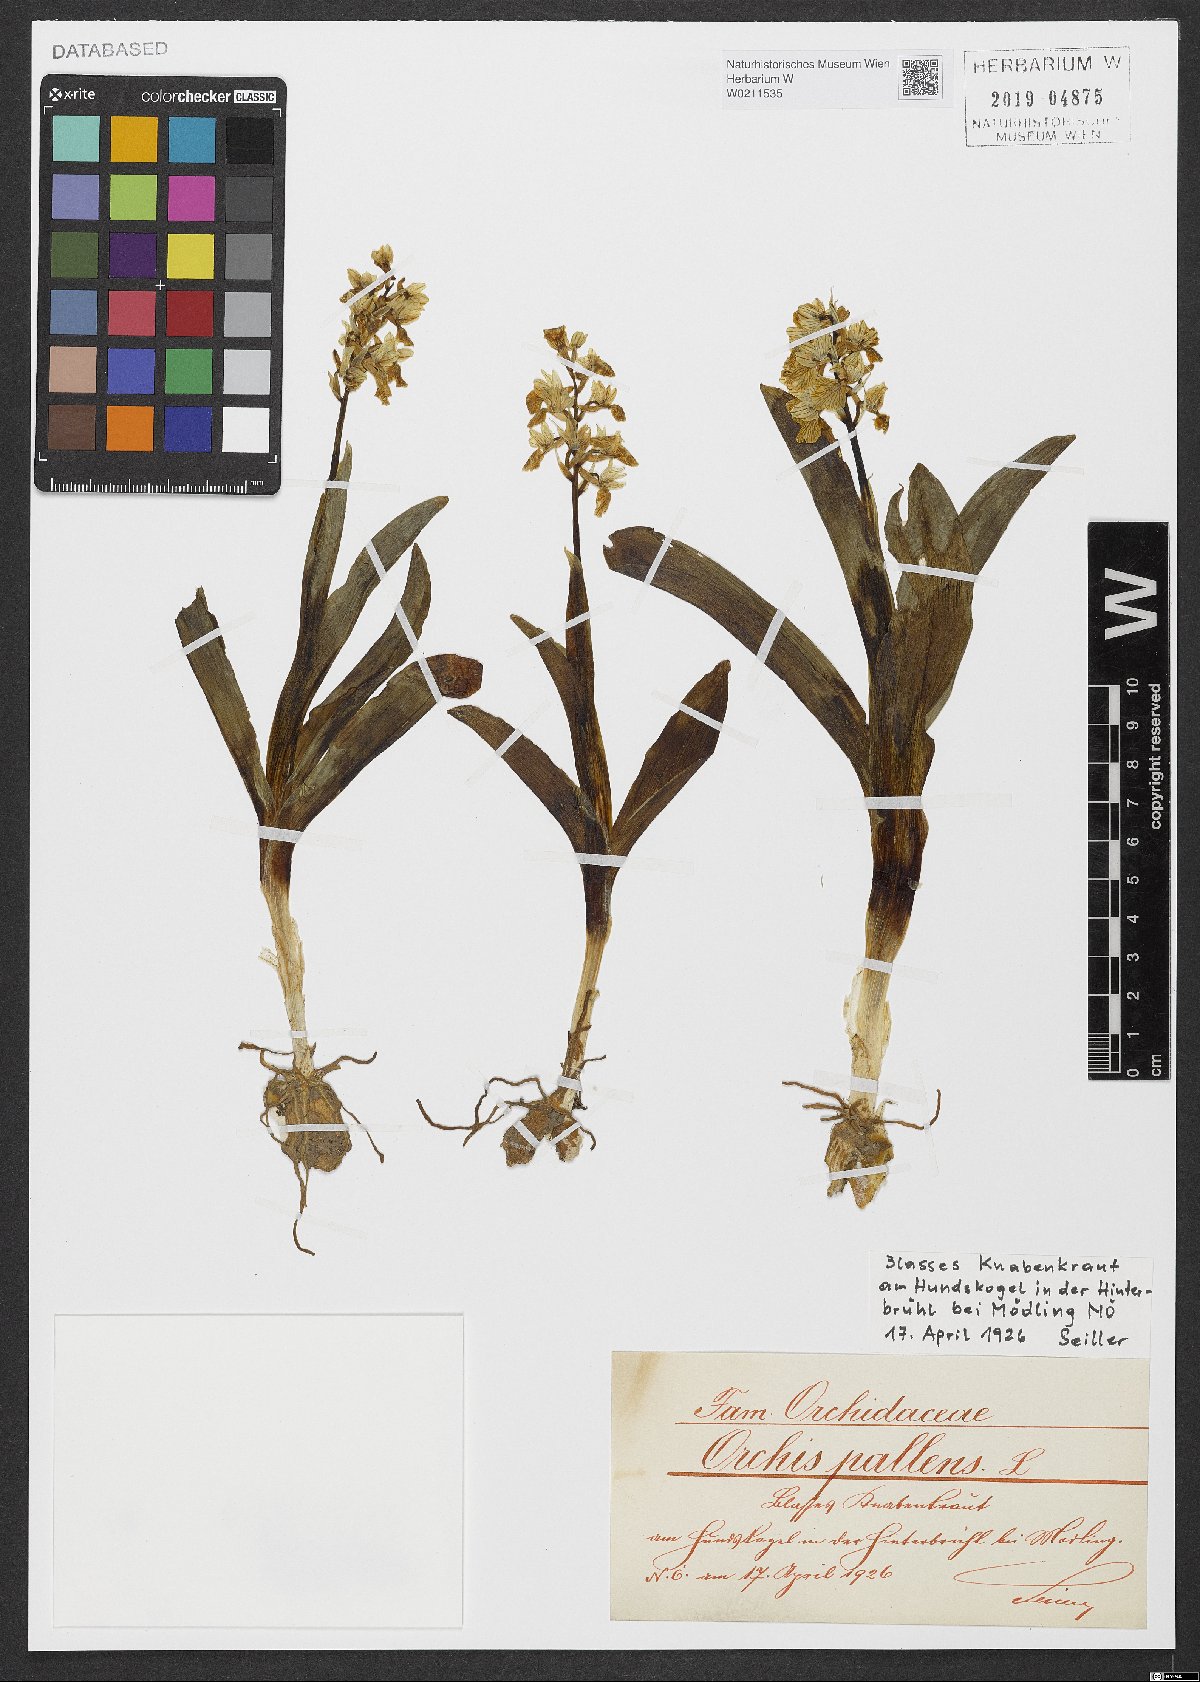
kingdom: Plantae
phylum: Tracheophyta
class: Liliopsida
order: Asparagales
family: Orchidaceae
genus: Orchis
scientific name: Orchis pallens
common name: Pale-flowered orchid
